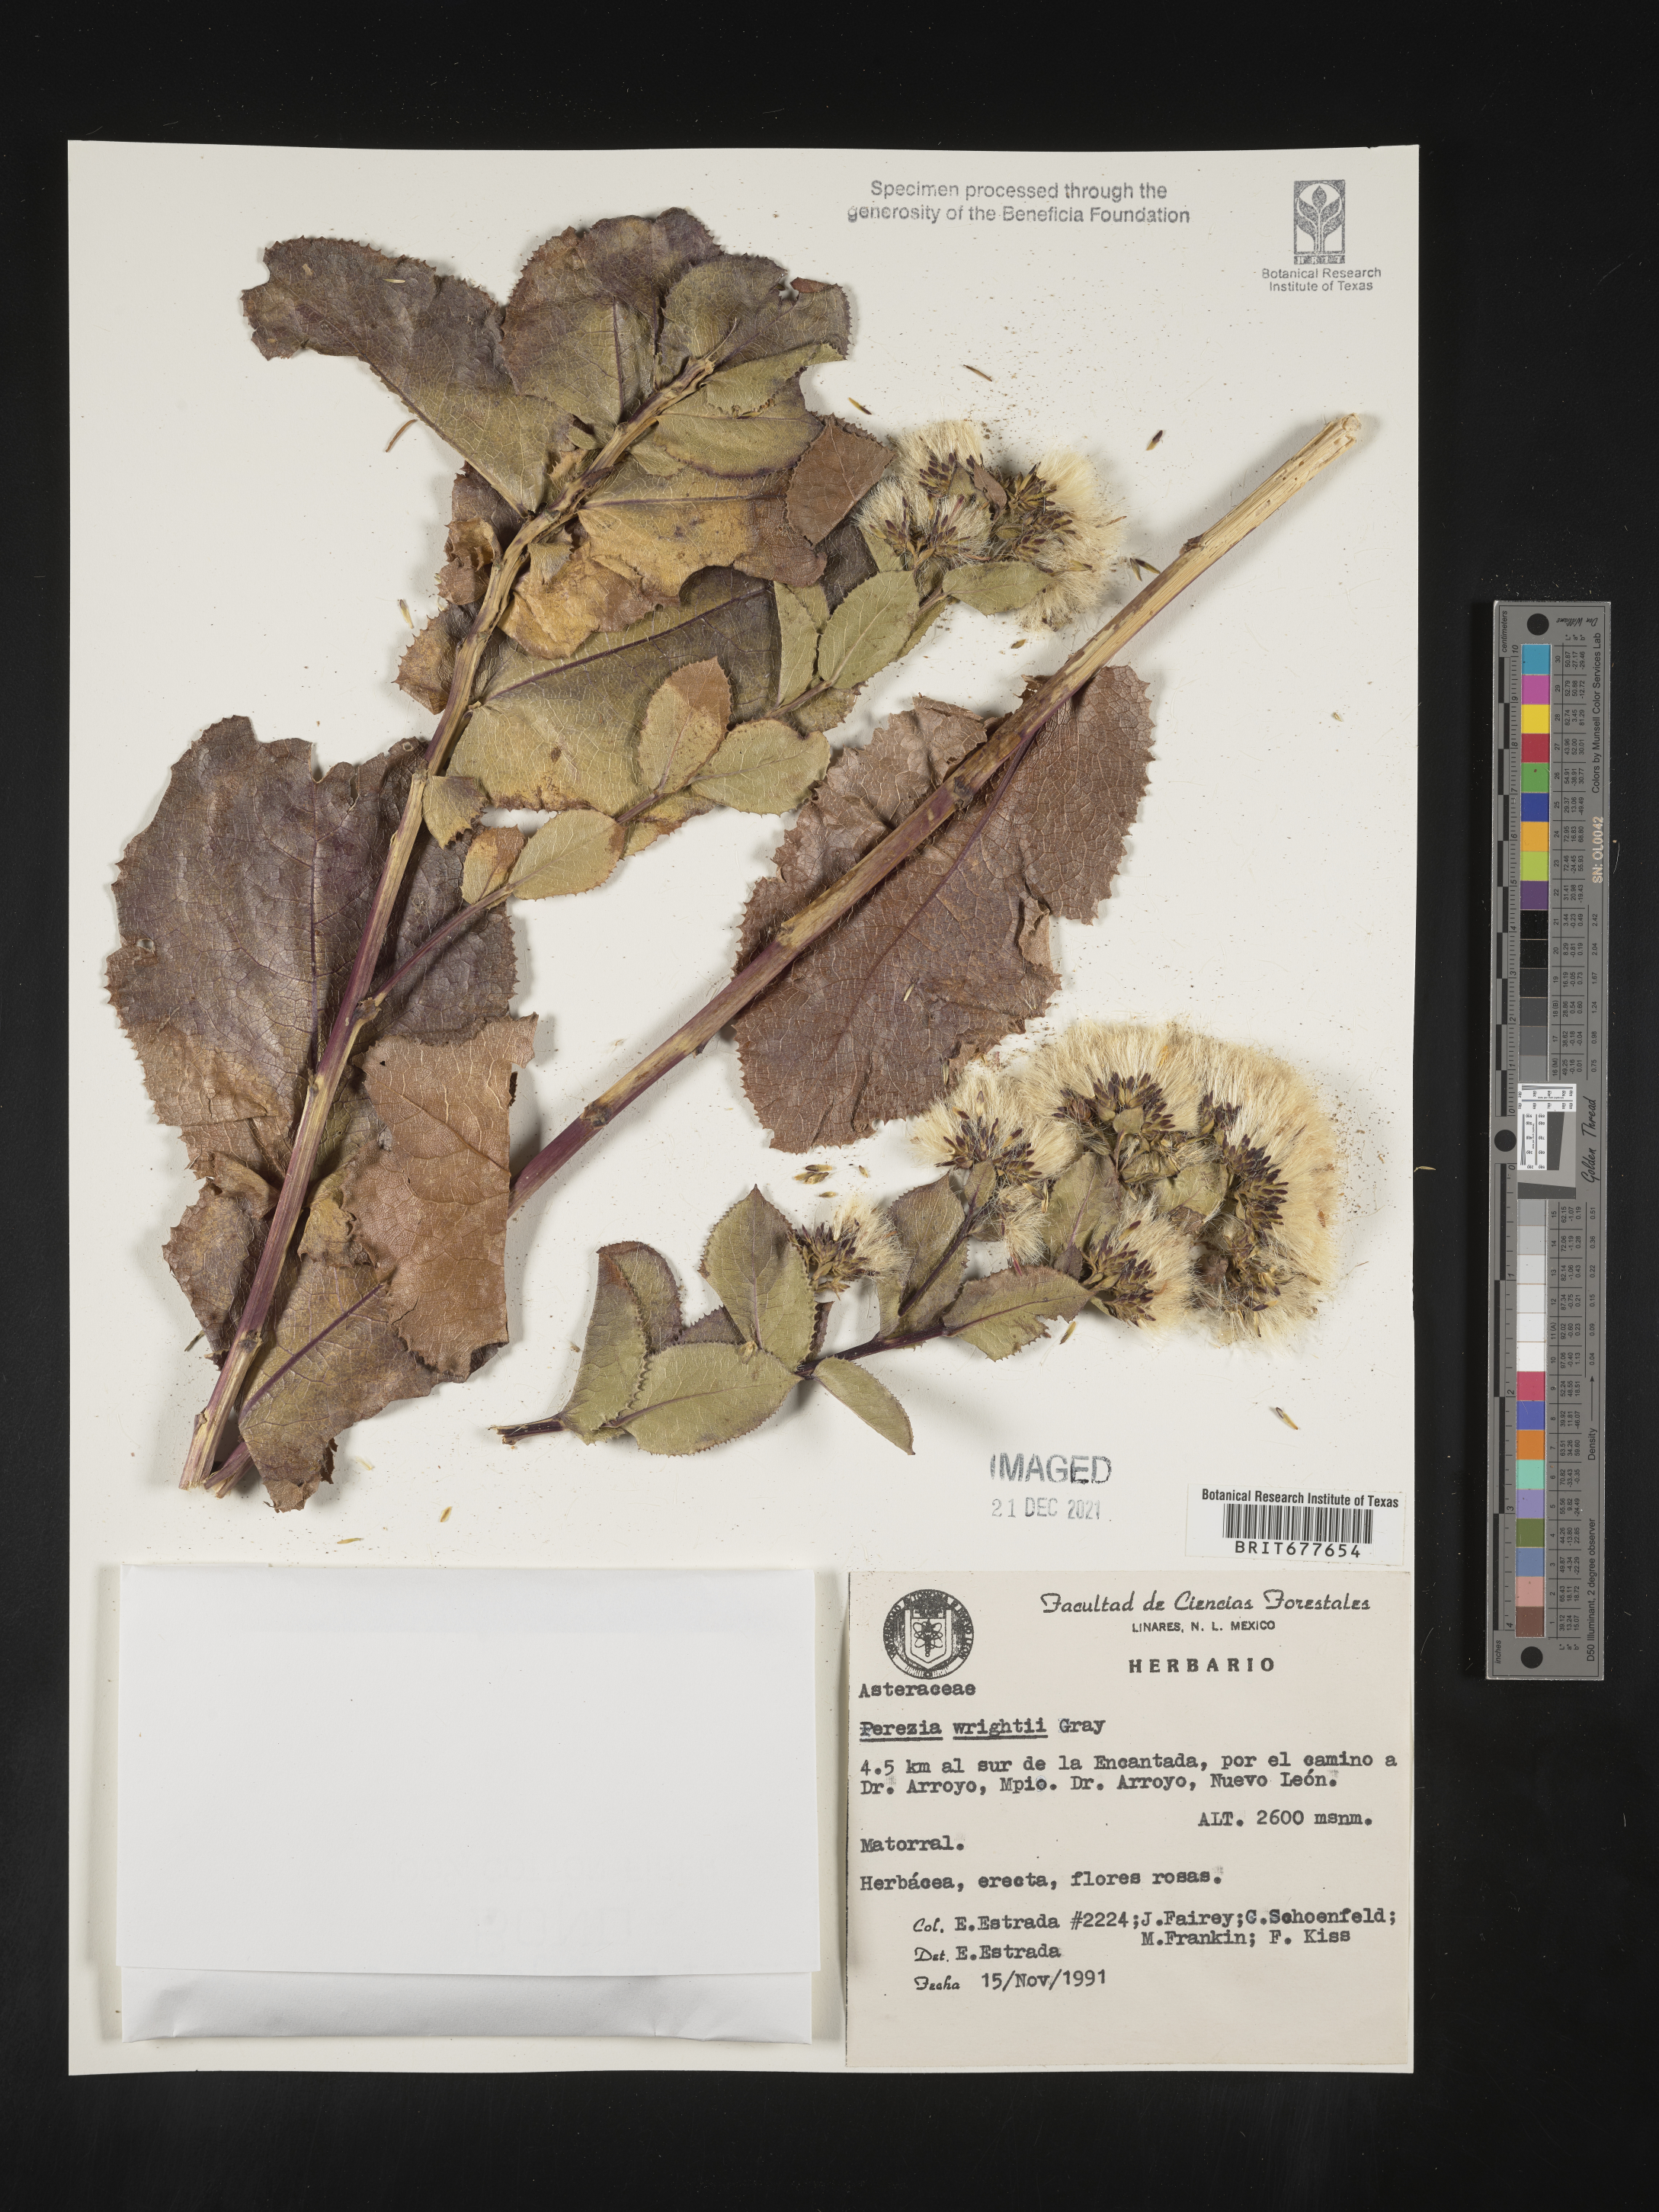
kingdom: Plantae
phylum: Tracheophyta
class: Magnoliopsida
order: Asterales
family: Asteraceae
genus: Perezia
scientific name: Perezia
